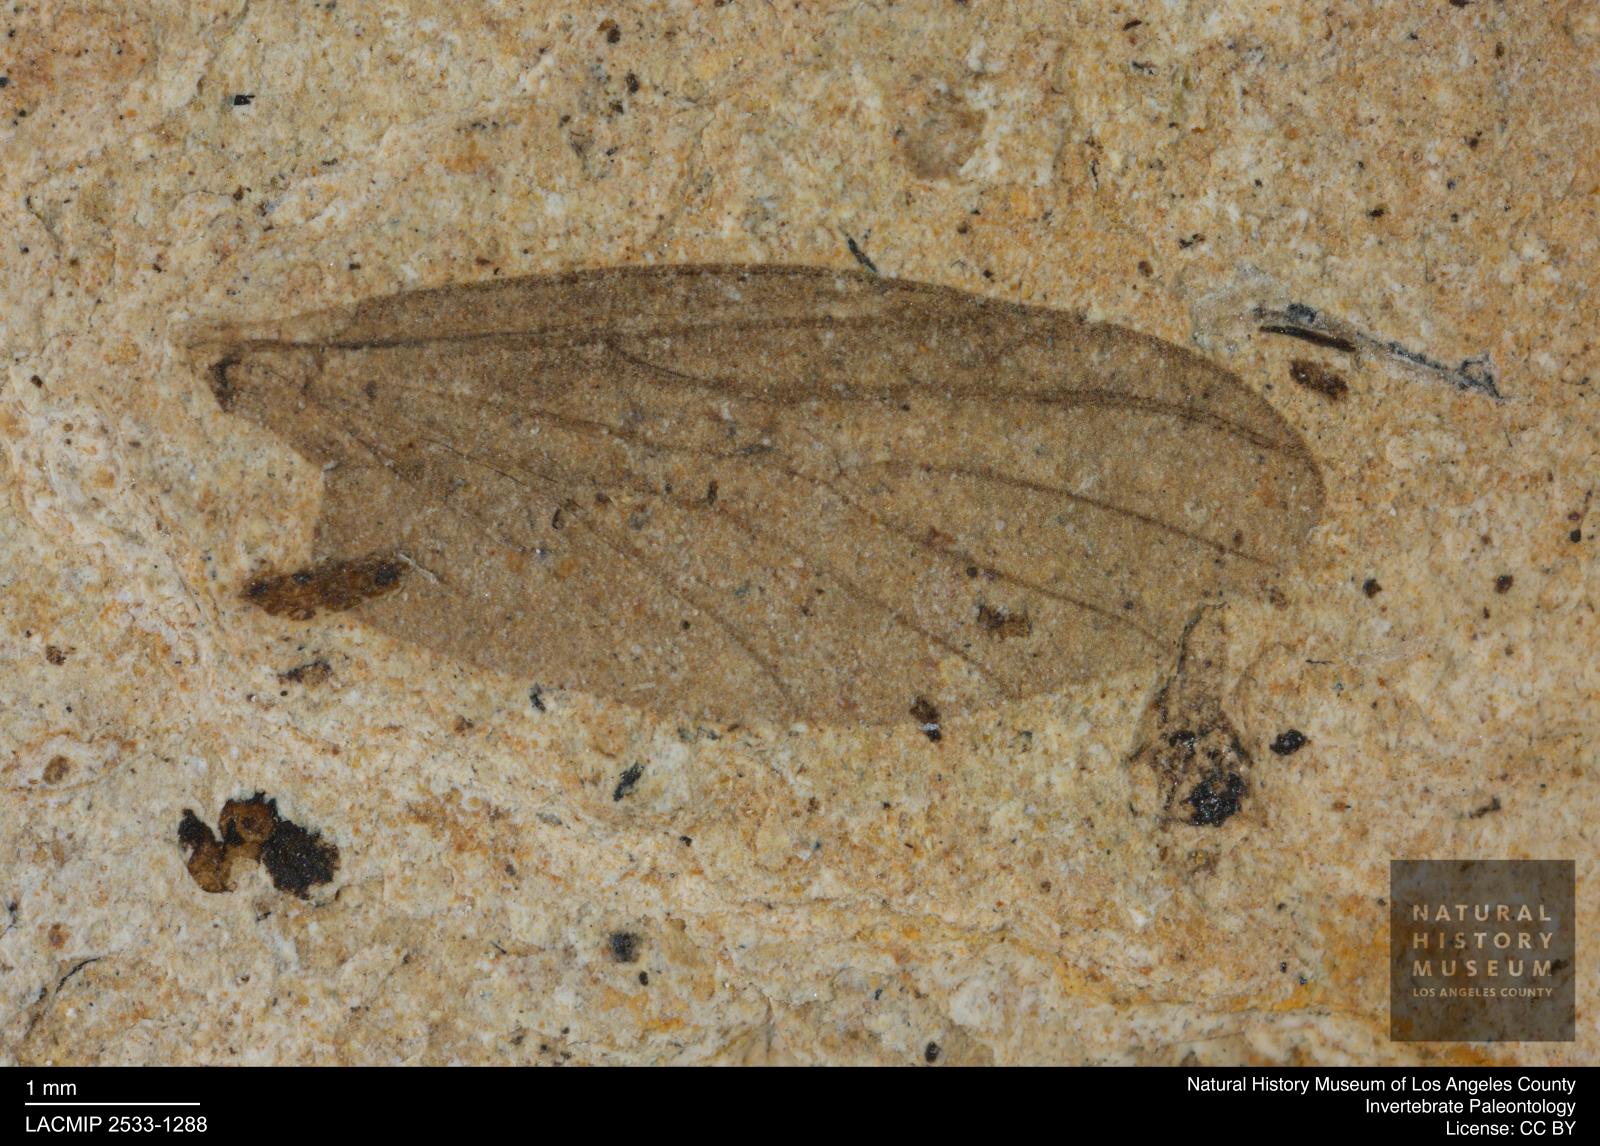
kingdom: Animalia
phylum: Arthropoda
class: Insecta
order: Diptera
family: Bibionidae
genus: Plecia
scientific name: Plecia hypogaea
